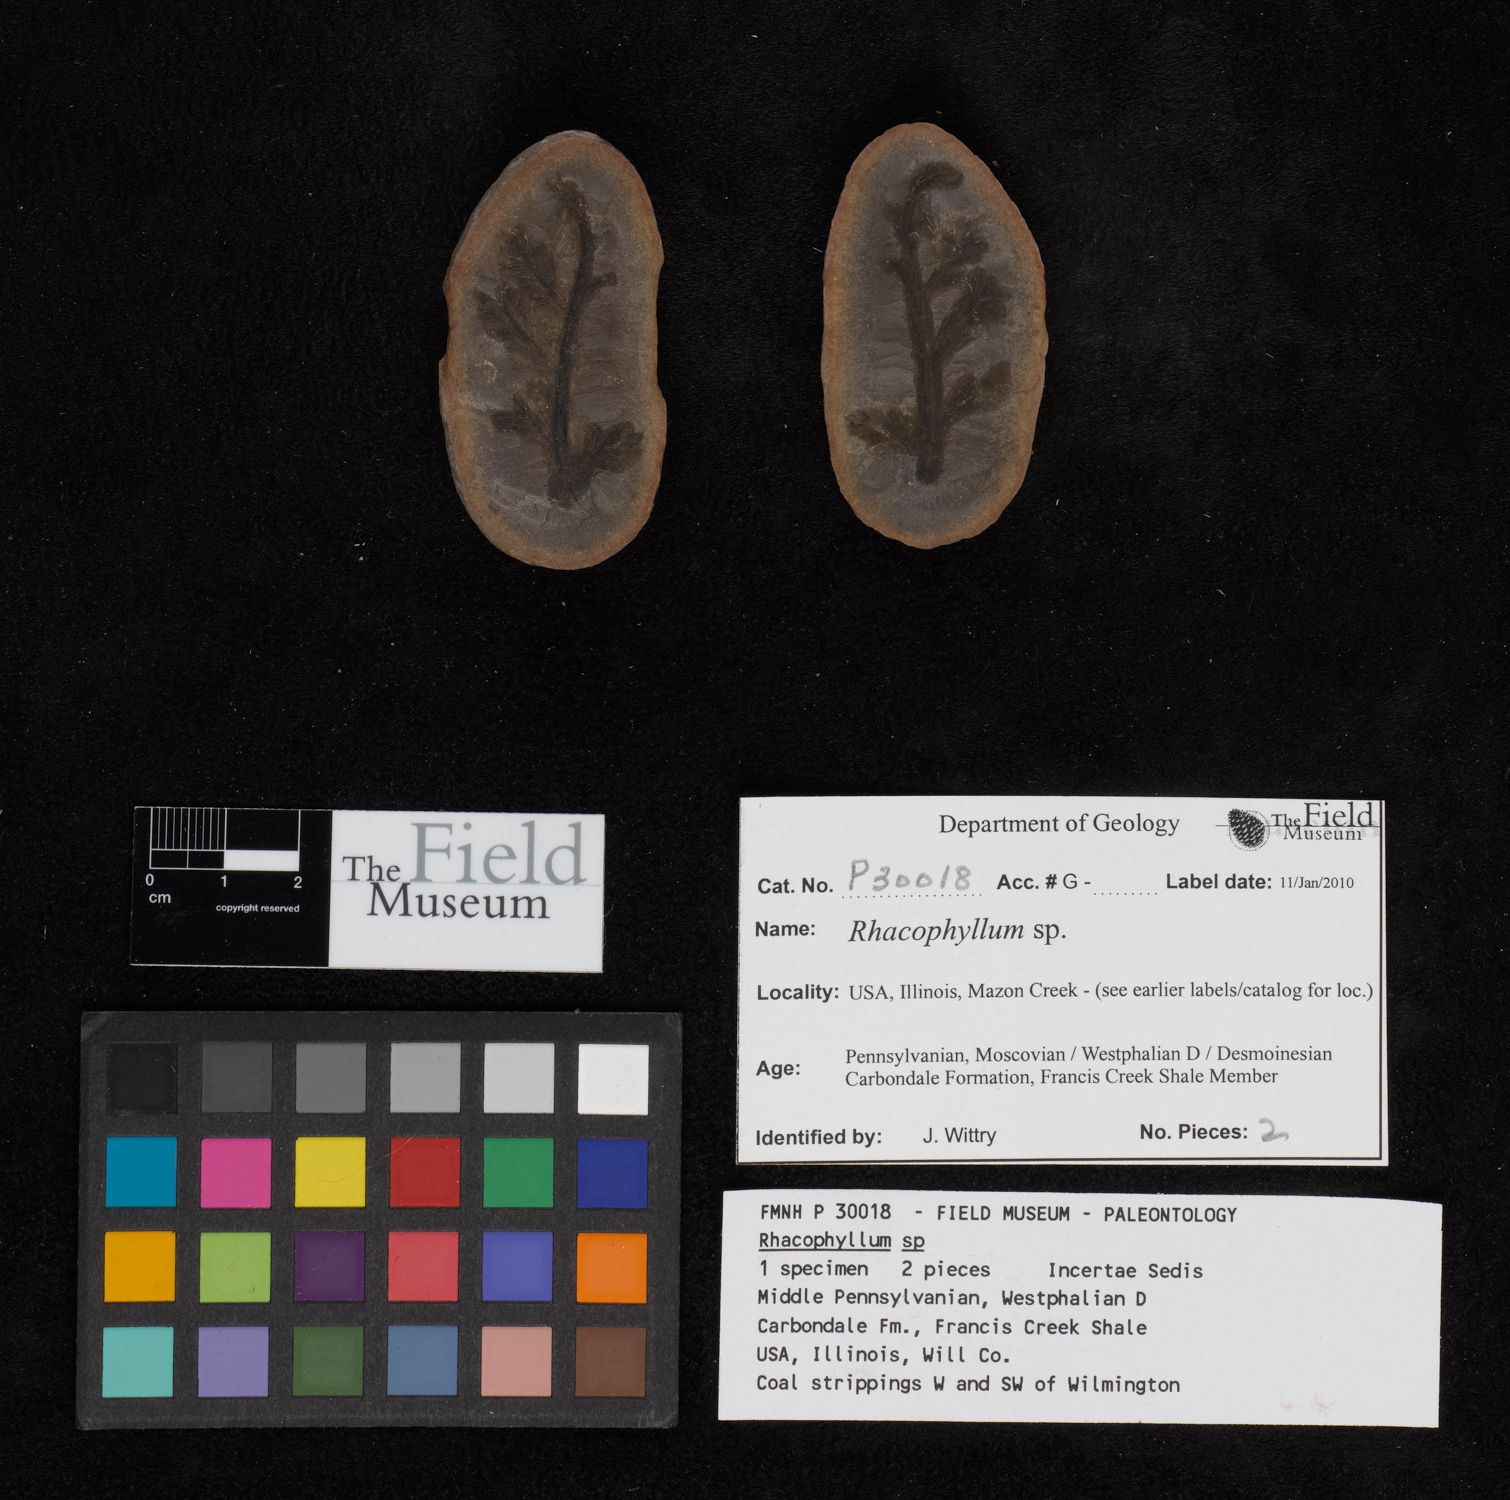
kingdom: Plantae
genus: Rhacophyllum
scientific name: Rhacophyllum
